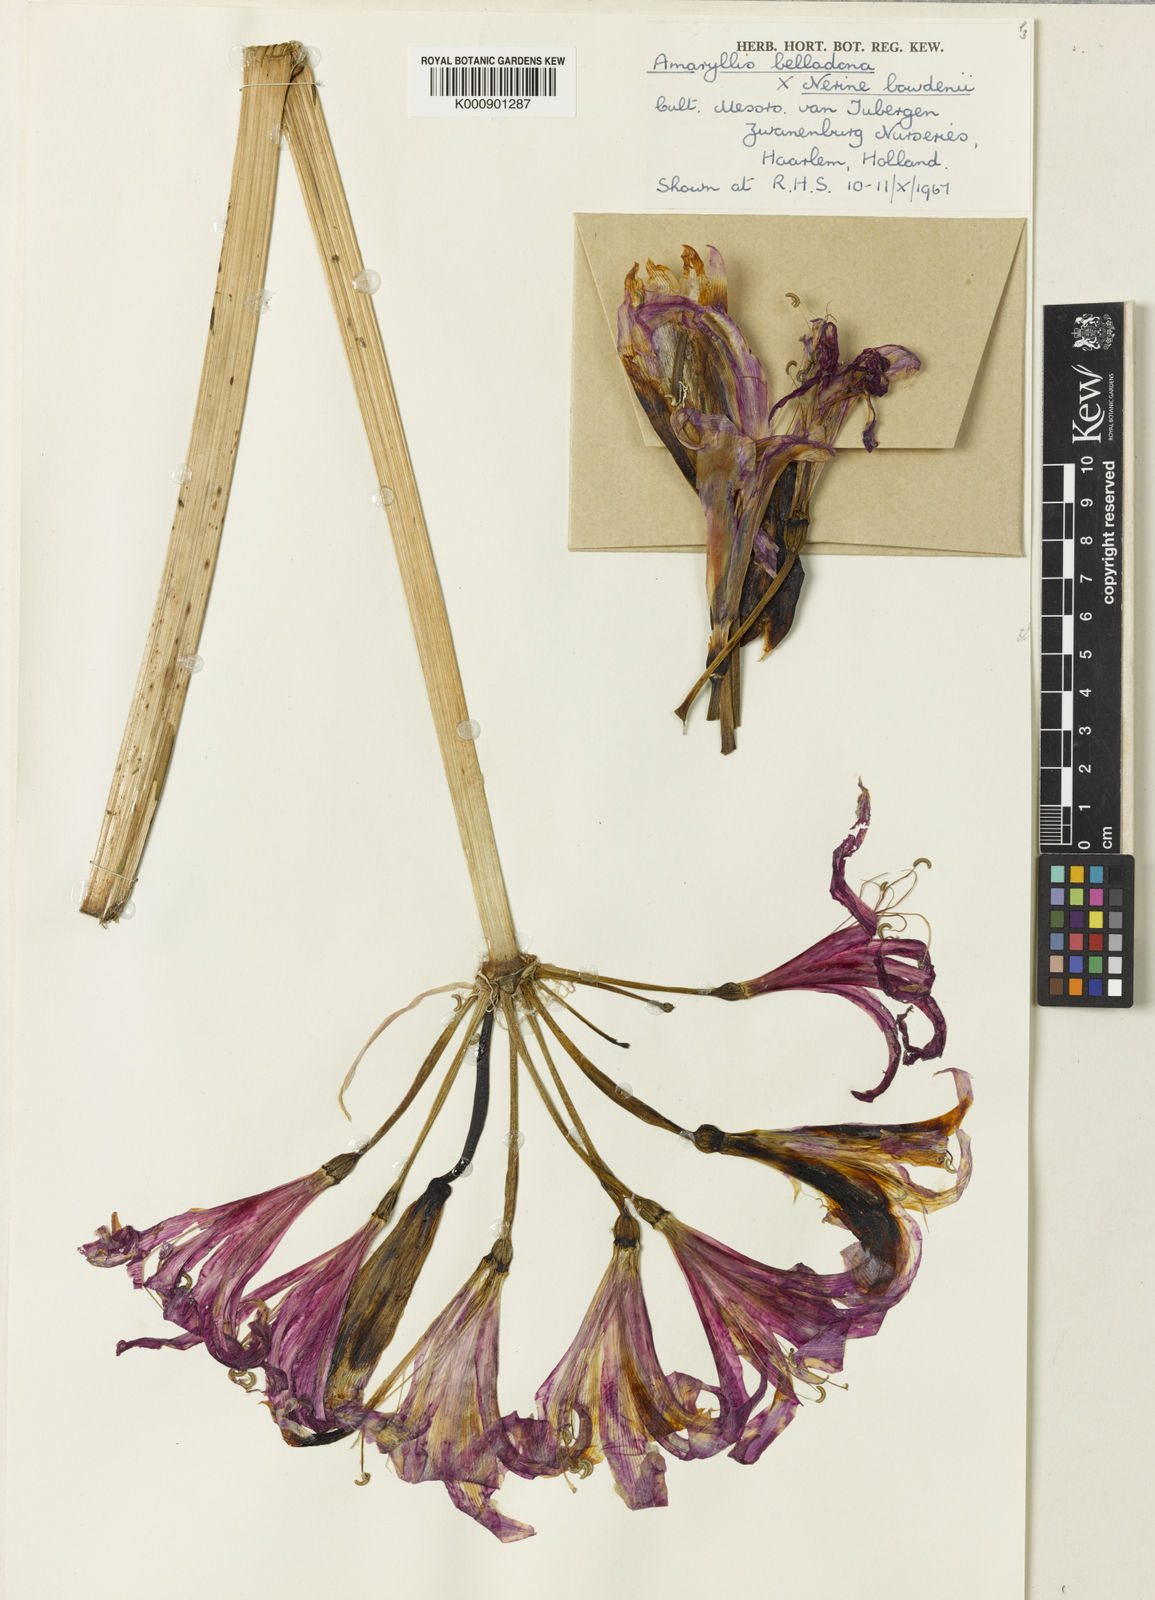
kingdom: Plantae
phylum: Tracheophyta
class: Liliopsida
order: Asparagales
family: Amaryllidaceae
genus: Amarine
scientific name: Amarine tubergenii
